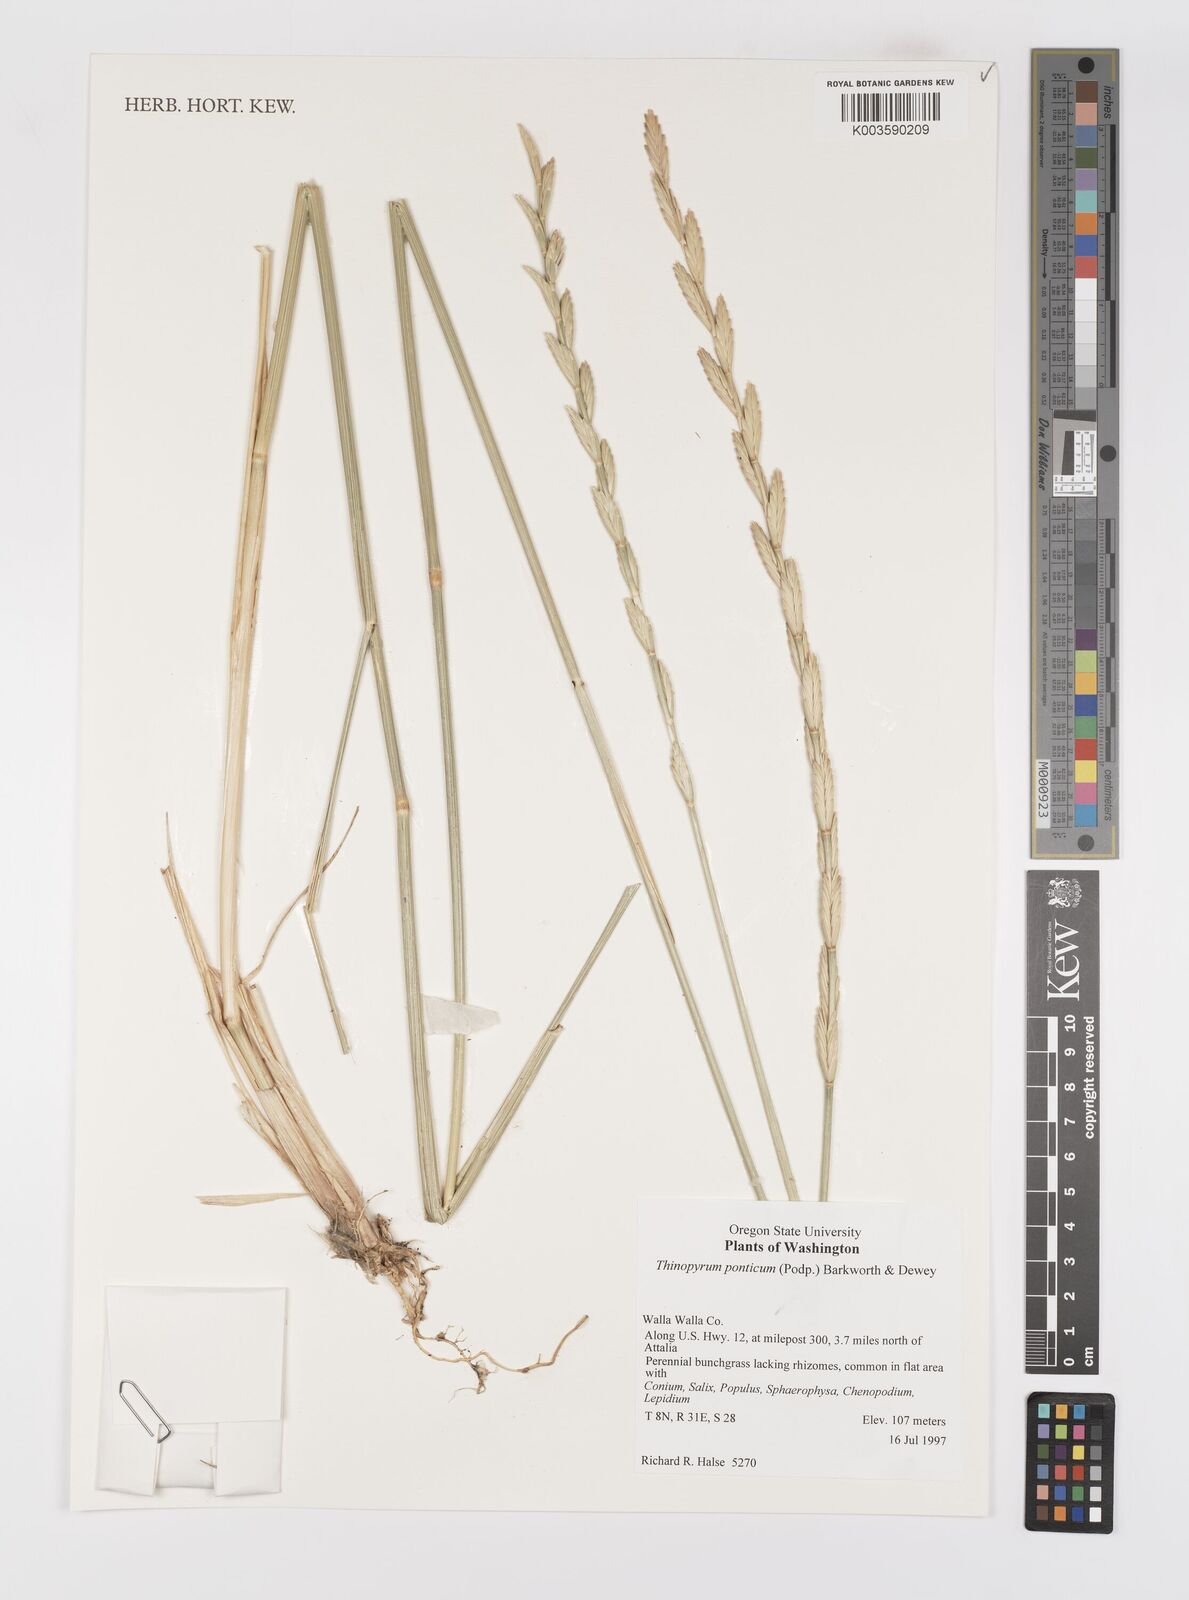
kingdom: Plantae
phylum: Tracheophyta
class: Liliopsida
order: Poales
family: Poaceae
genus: Thinopyrum
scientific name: Thinopyrum elongatum
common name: Tall wheatgrass
